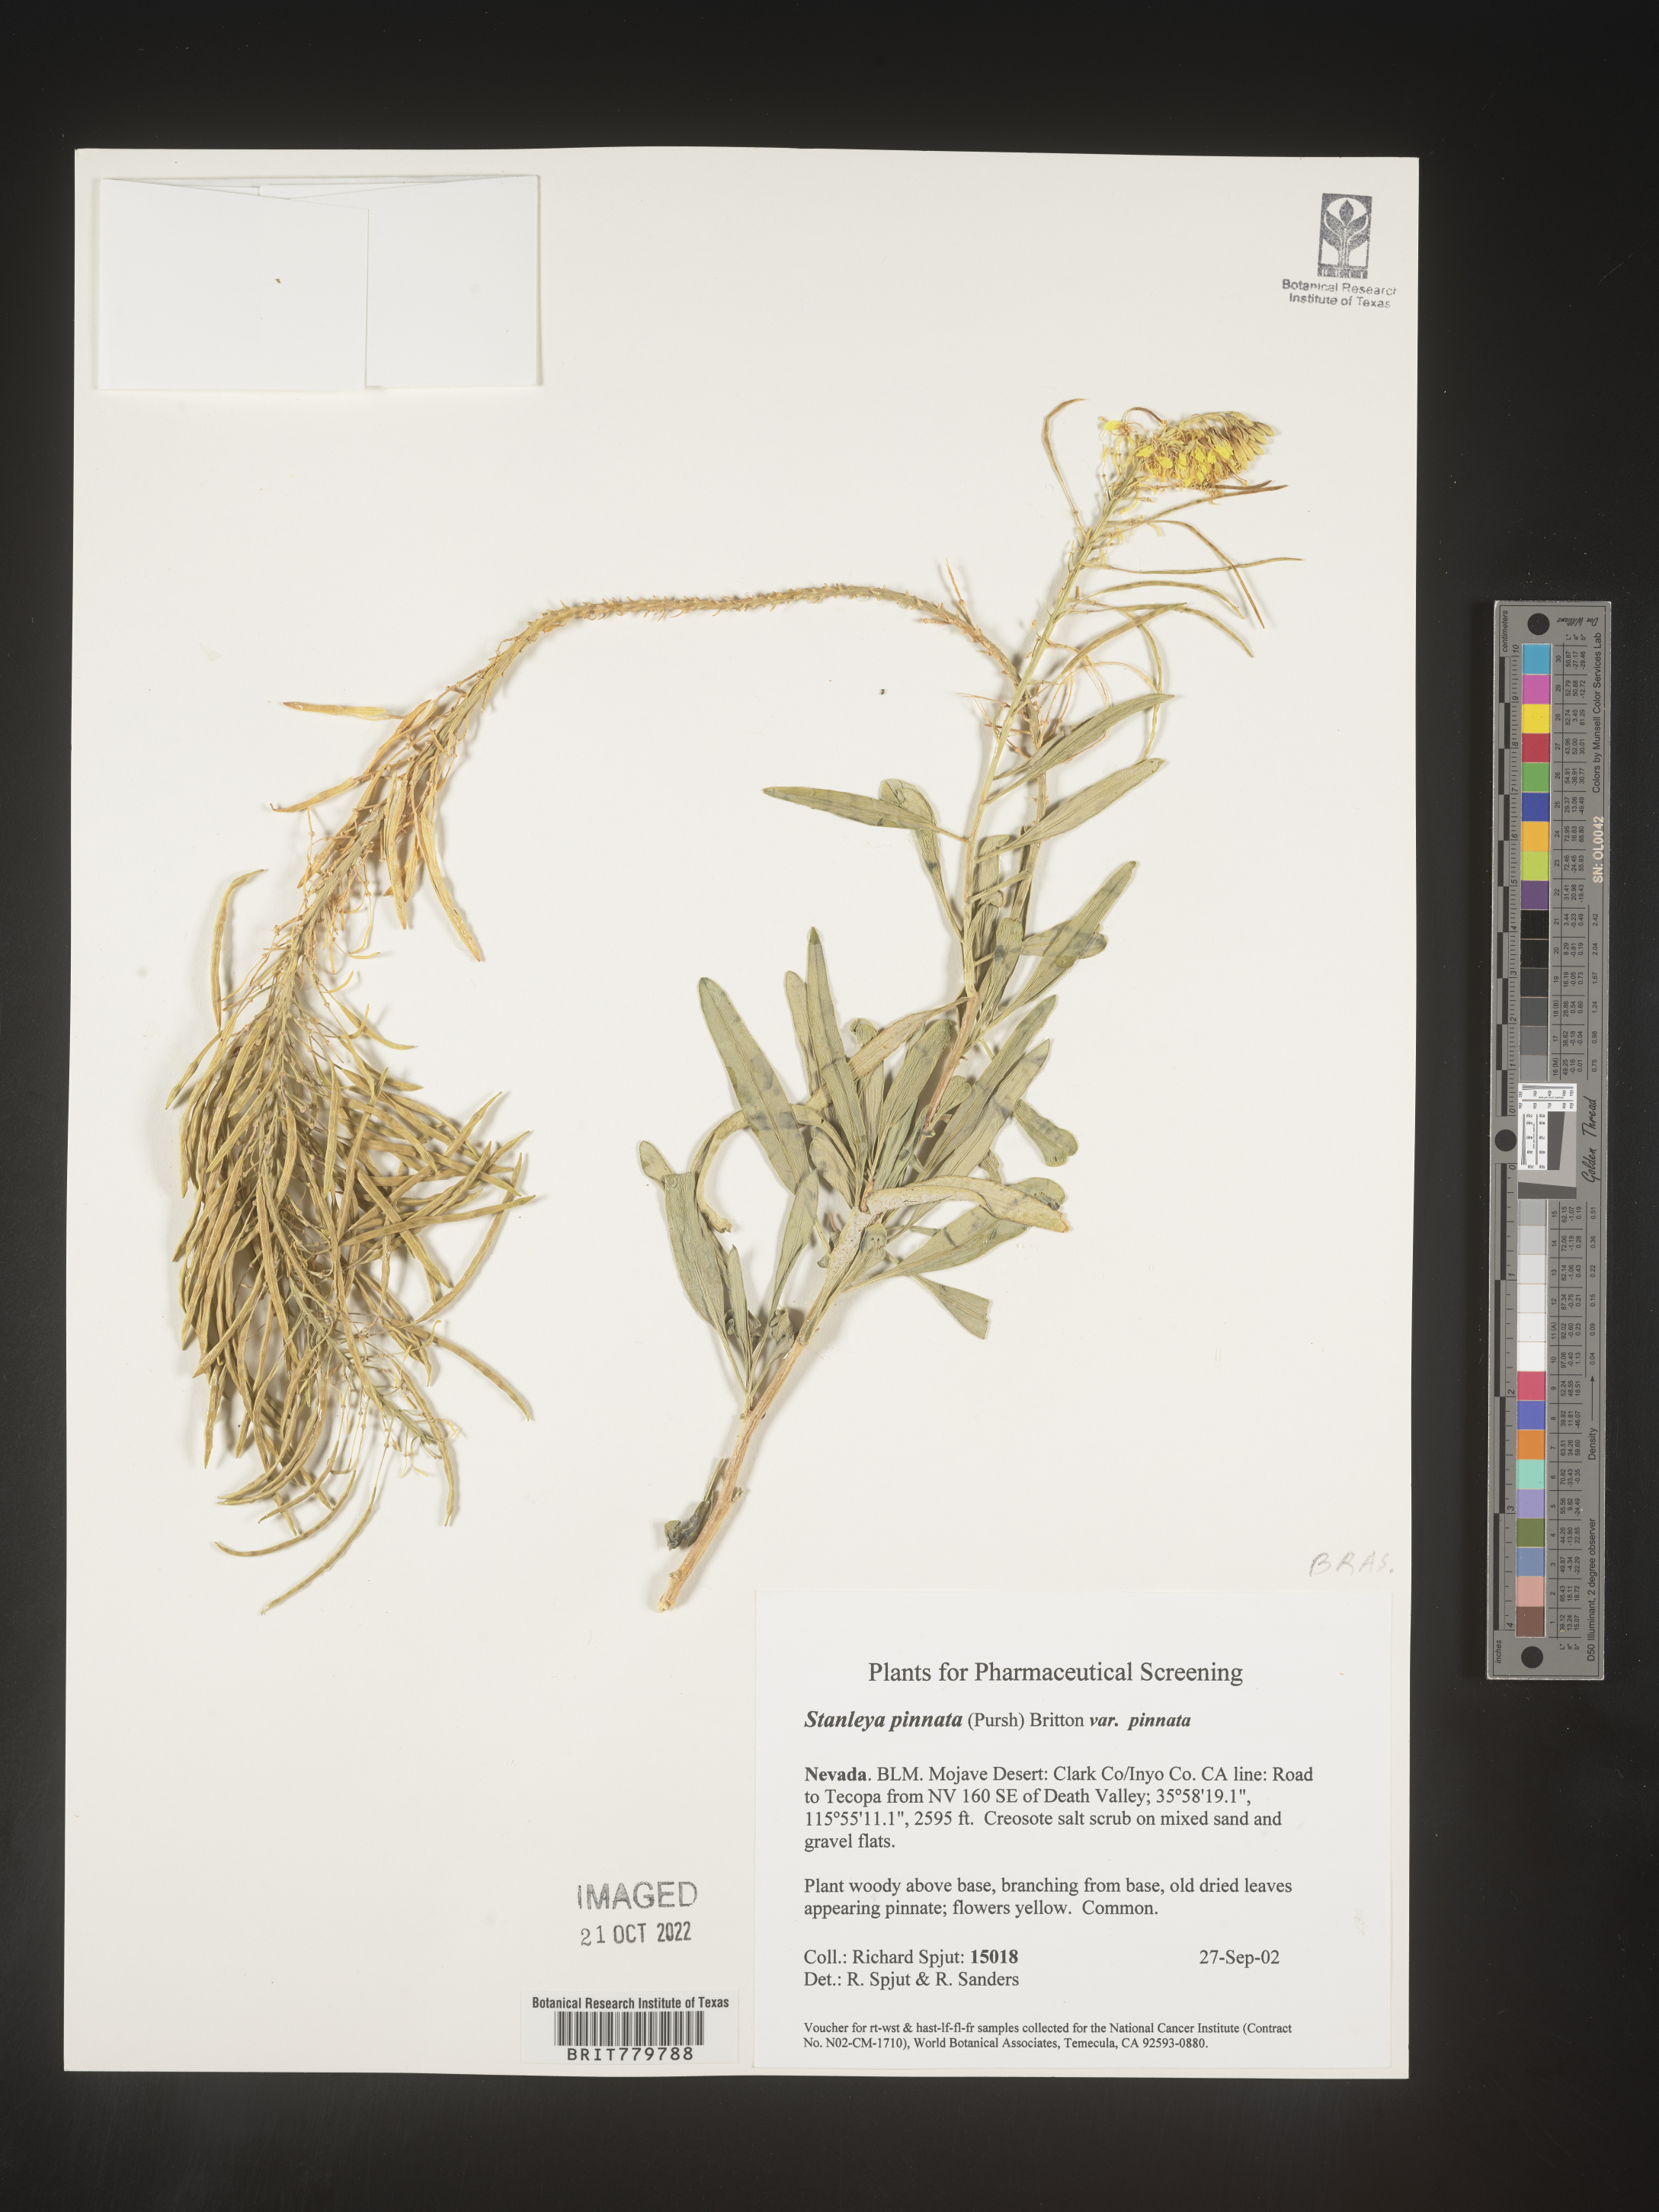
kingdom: Plantae
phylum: Tracheophyta
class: Magnoliopsida
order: Brassicales
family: Brassicaceae
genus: Stanleya
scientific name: Stanleya pinnata
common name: Prince's-plume
